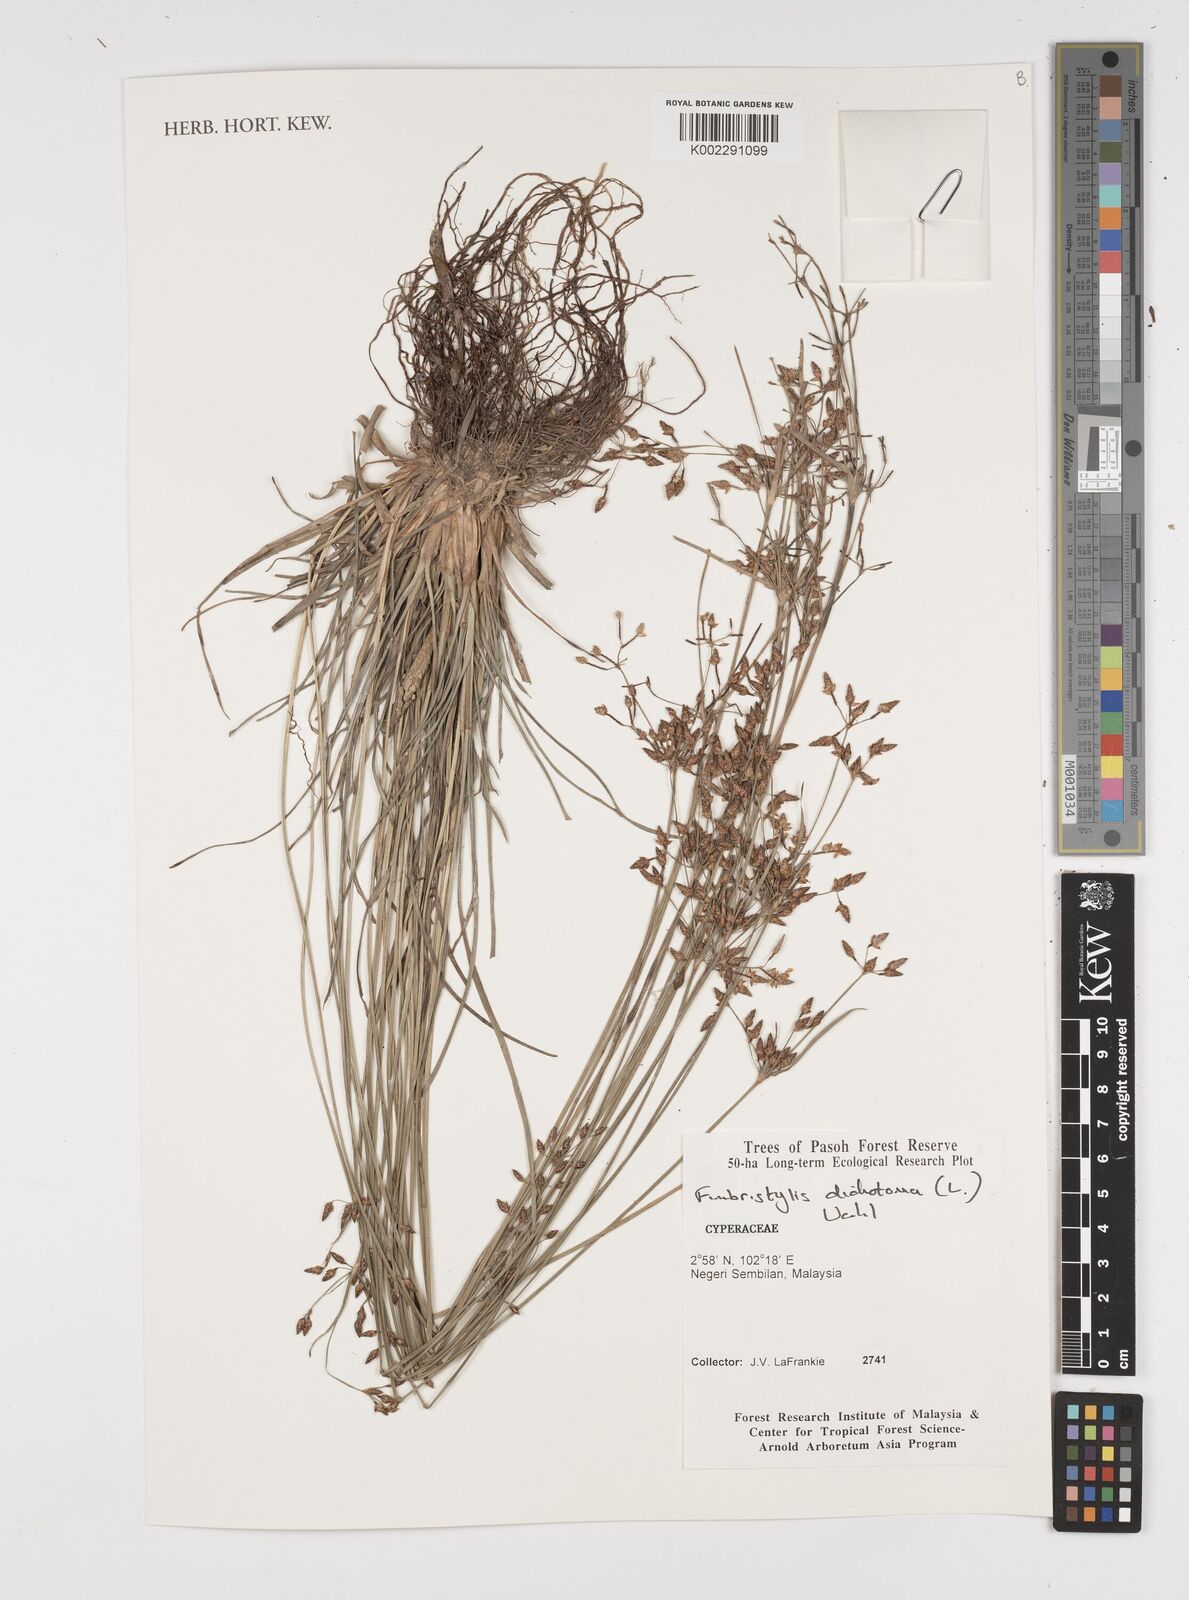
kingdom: Plantae
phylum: Tracheophyta
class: Liliopsida
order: Poales
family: Cyperaceae
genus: Fimbristylis
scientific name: Fimbristylis dichotoma
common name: Forked fimbry
